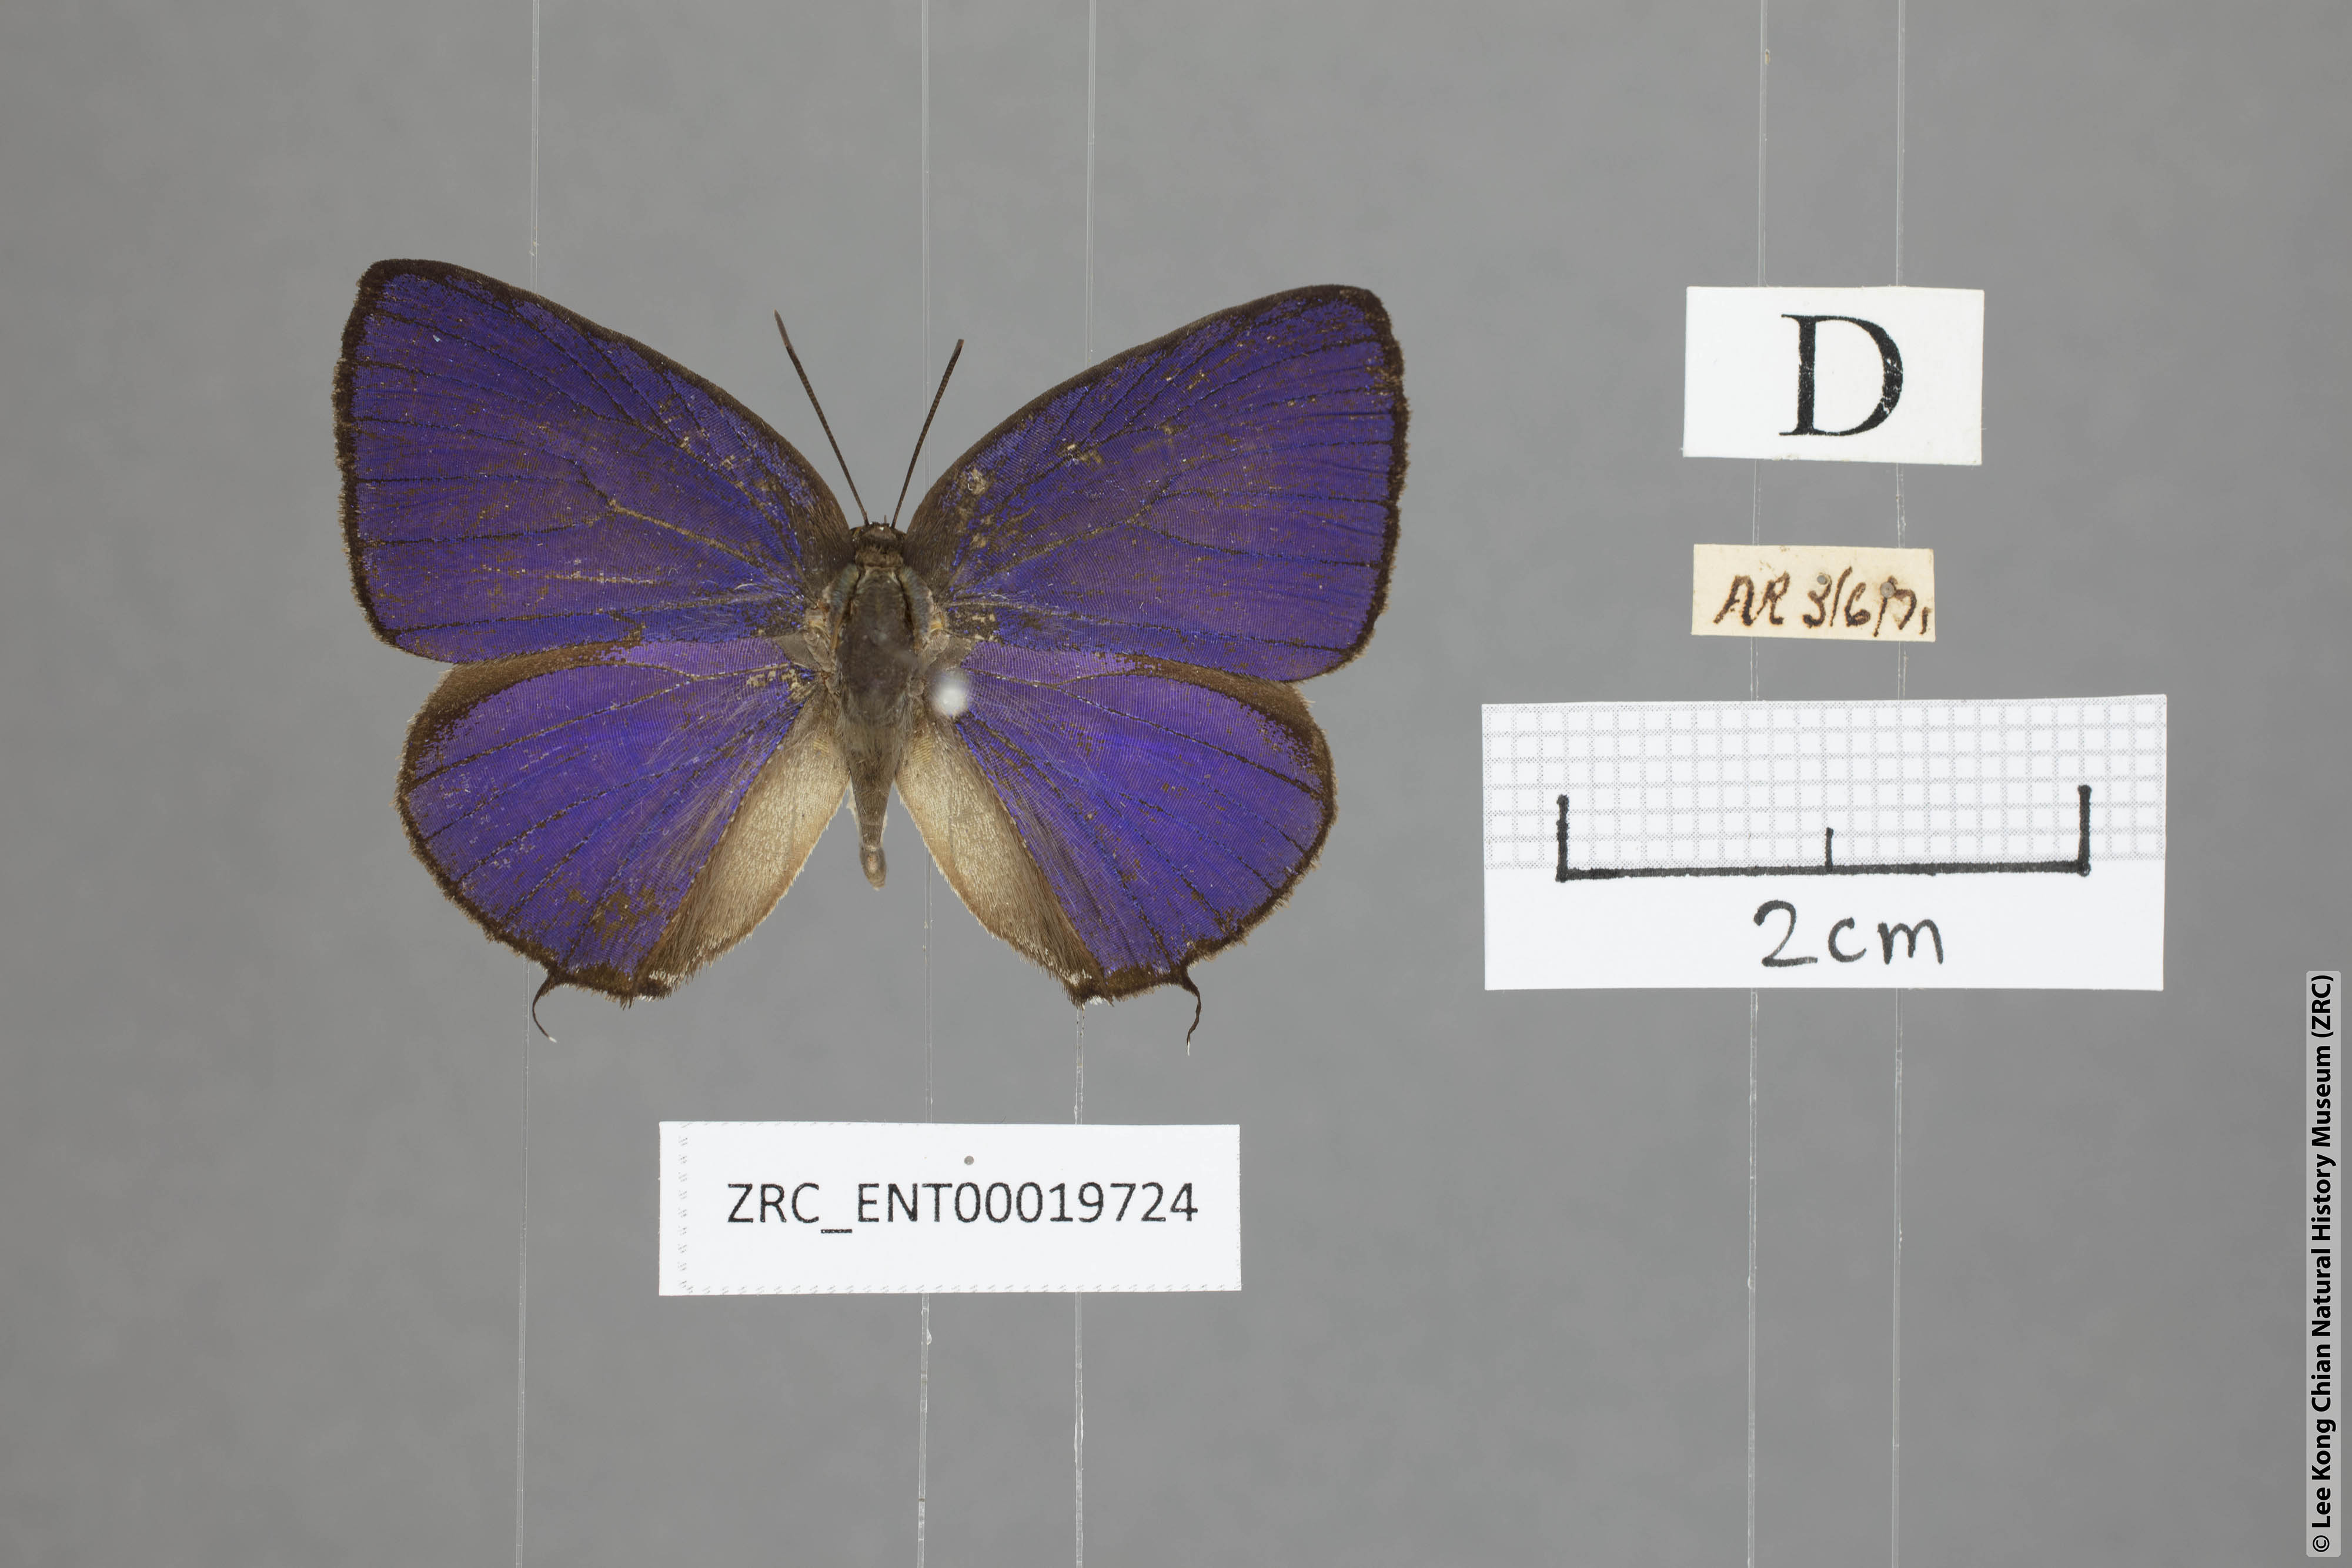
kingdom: Animalia
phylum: Arthropoda
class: Insecta
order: Lepidoptera
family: Lycaenidae
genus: Arhopala
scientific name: Arhopala myrzala
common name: Malayan oakblue
